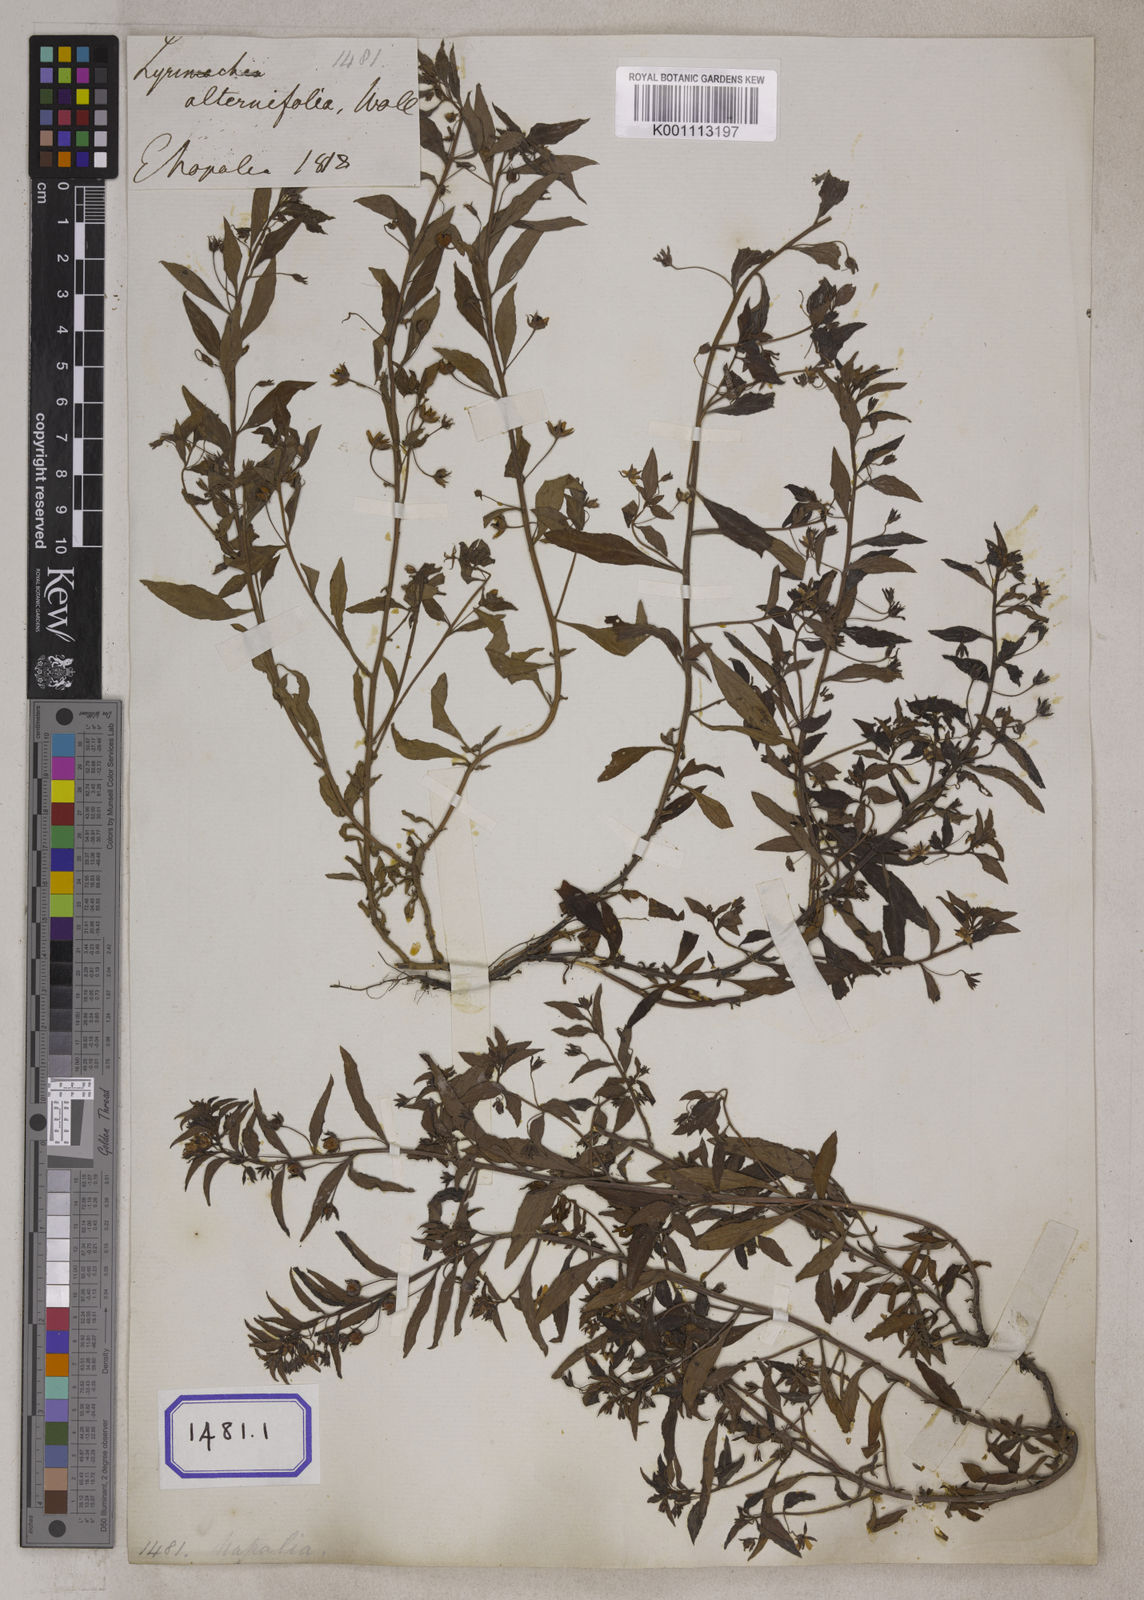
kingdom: Plantae
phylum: Tracheophyta
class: Magnoliopsida
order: Ericales
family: Primulaceae
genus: Lysimachia
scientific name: Lysimachia tetragona
